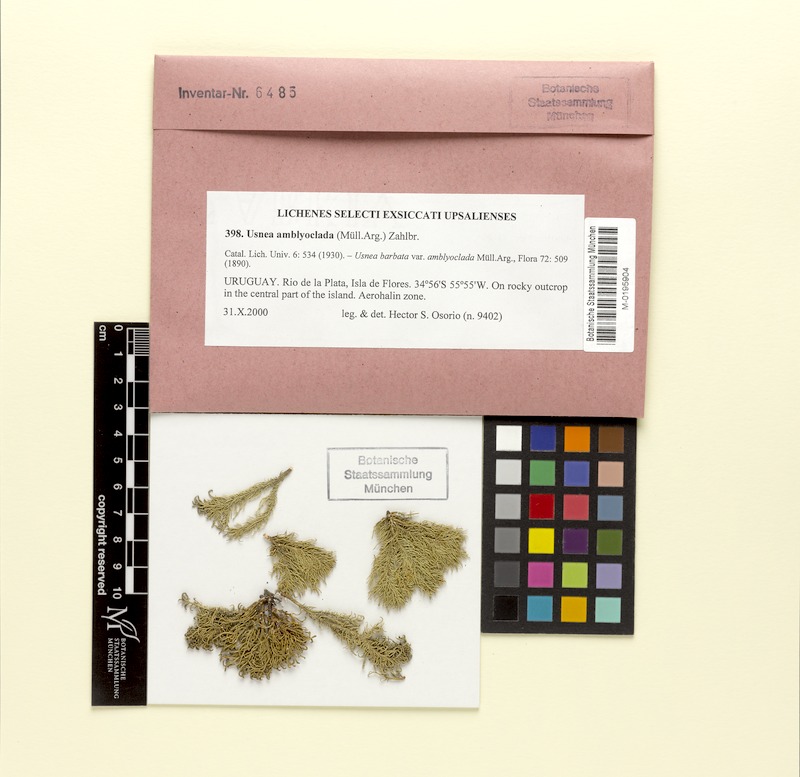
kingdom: Fungi
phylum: Ascomycota
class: Lecanoromycetes
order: Lecanorales
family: Parmeliaceae
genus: Usnea
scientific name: Usnea amblyoclada
